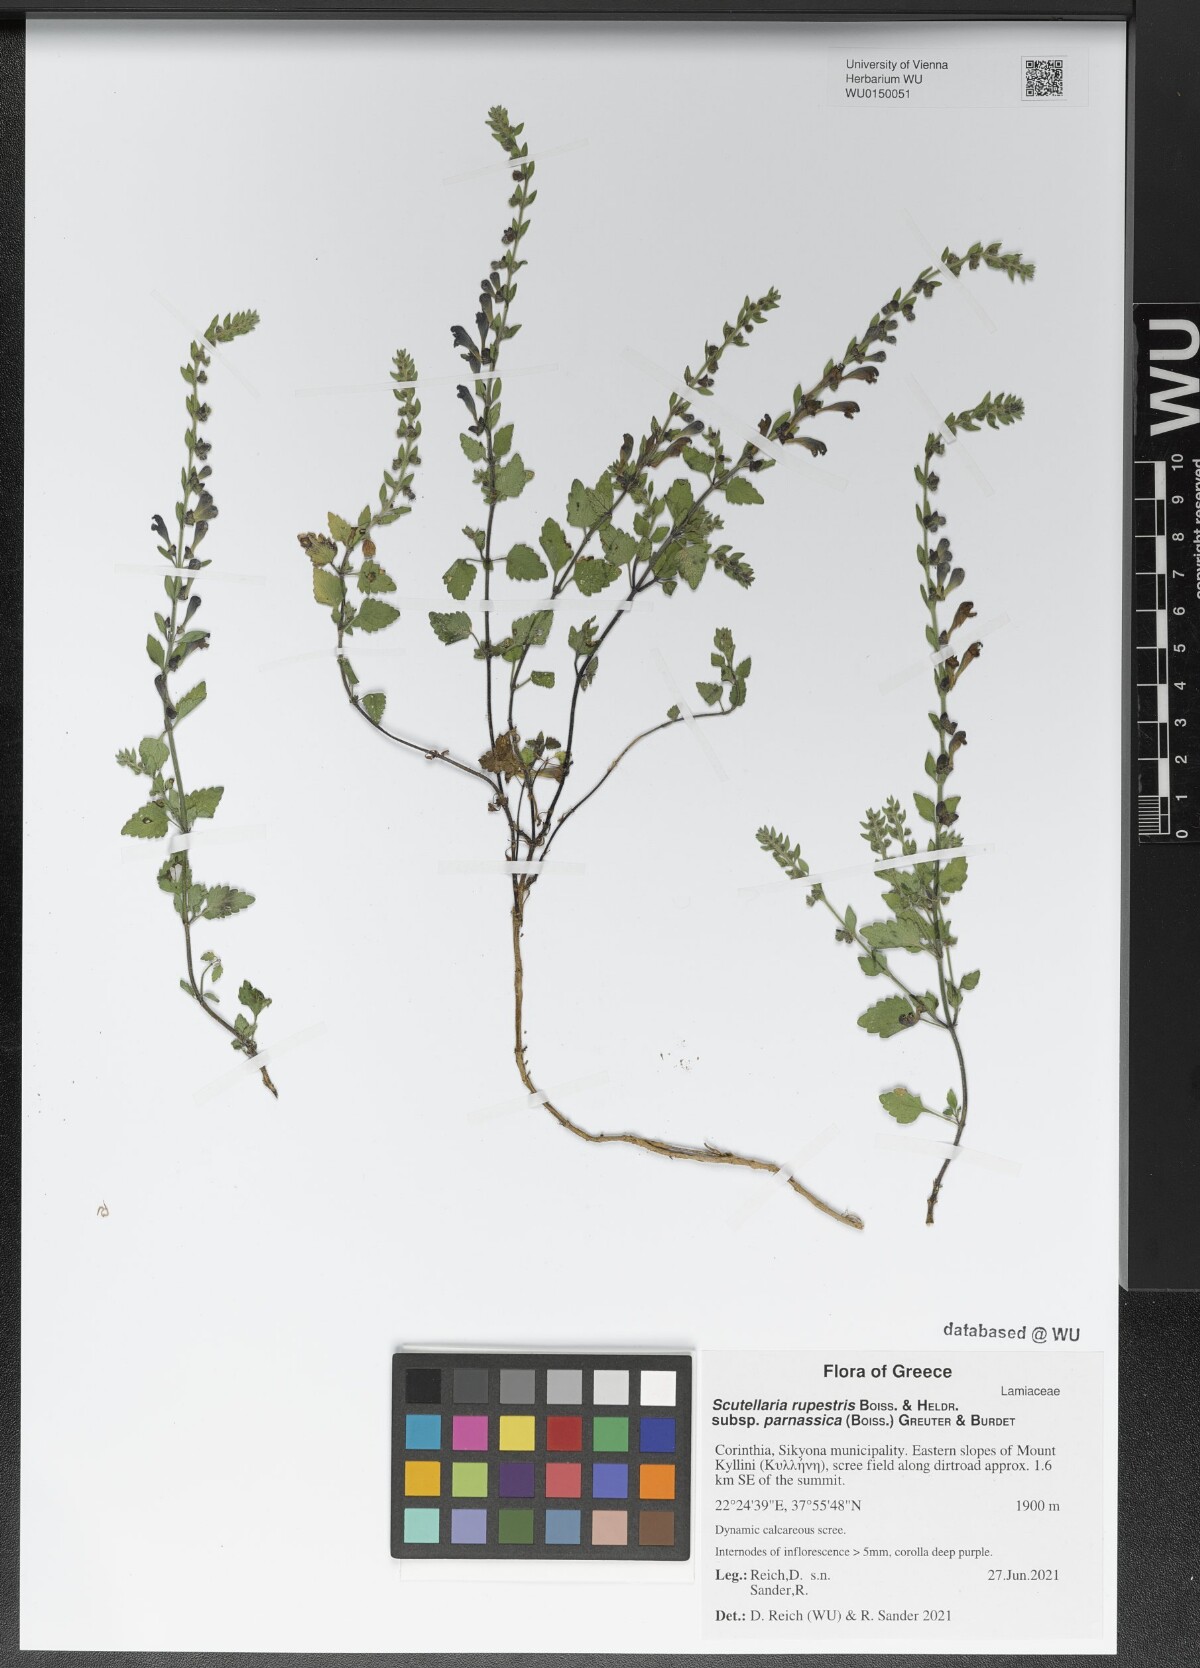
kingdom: Plantae
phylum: Tracheophyta
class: Magnoliopsida
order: Lamiales
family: Lamiaceae
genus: Scutellaria
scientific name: Scutellaria rupestris
